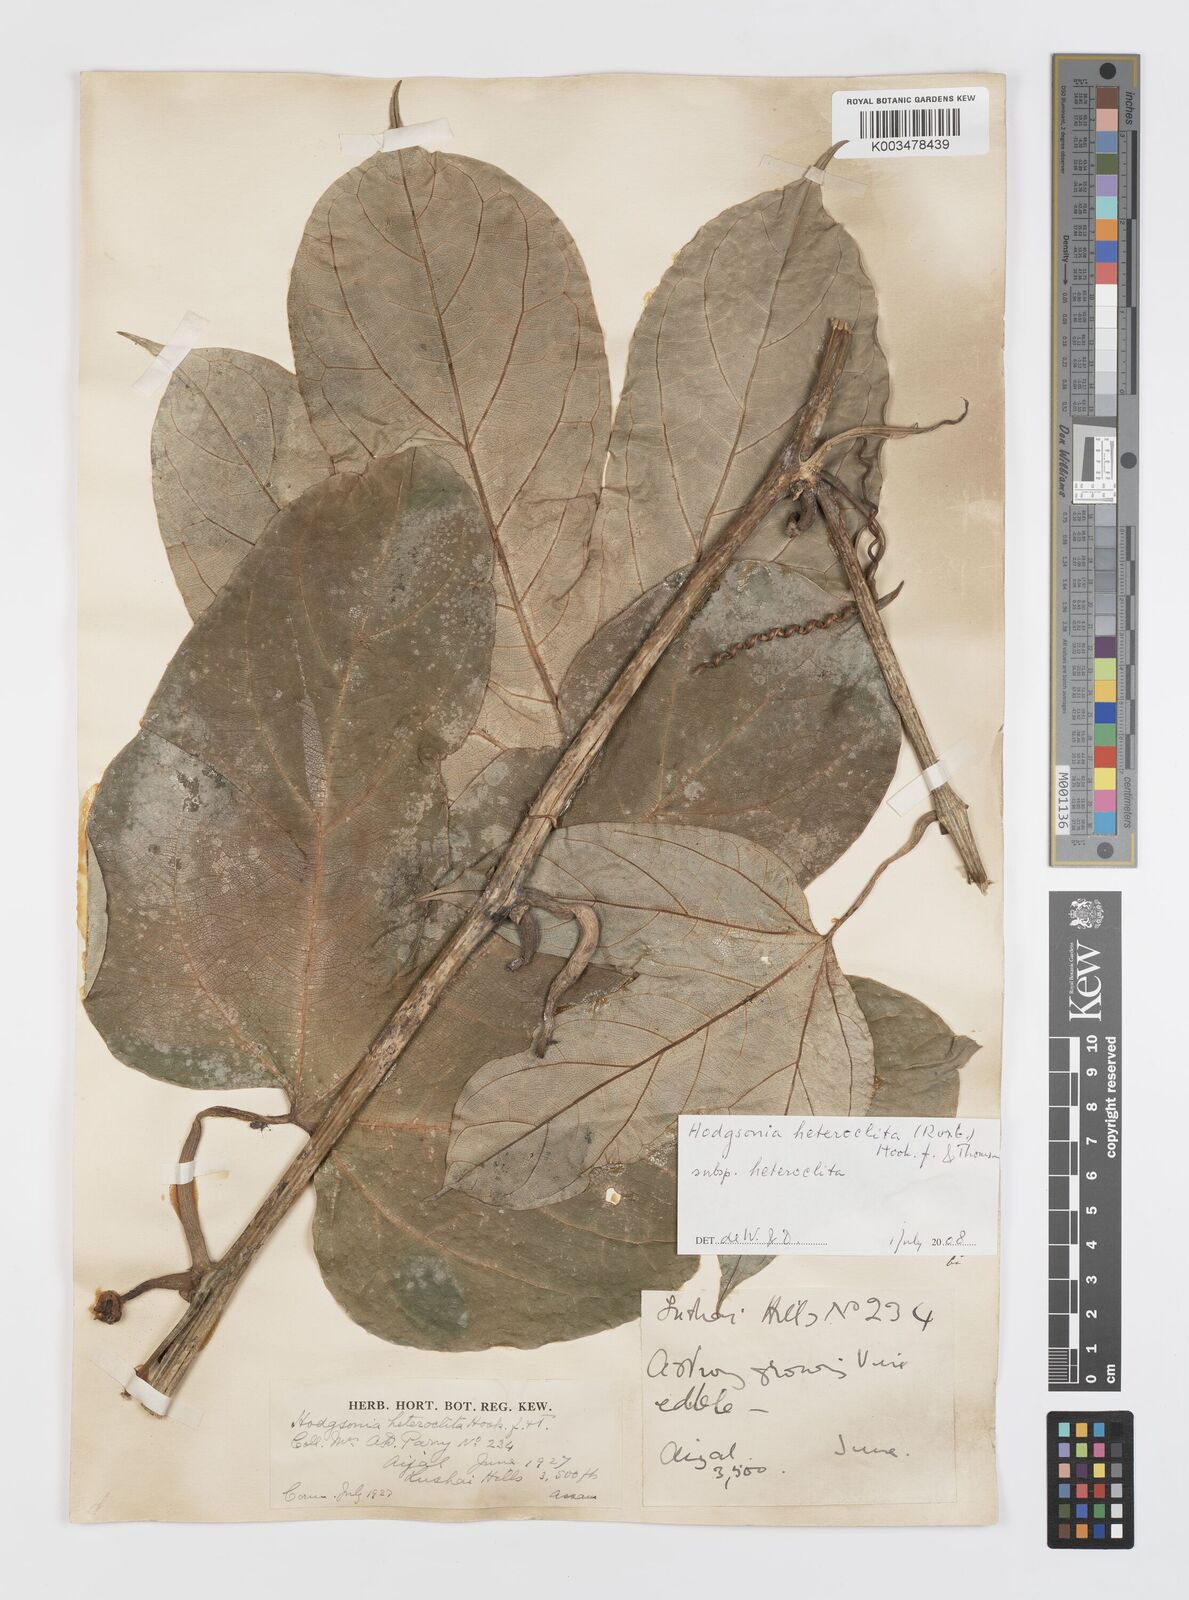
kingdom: Plantae
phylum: Tracheophyta
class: Magnoliopsida
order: Cucurbitales
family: Cucurbitaceae
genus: Hodgsonia
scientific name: Hodgsonia macrocarpa
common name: Chinese lardfruit
